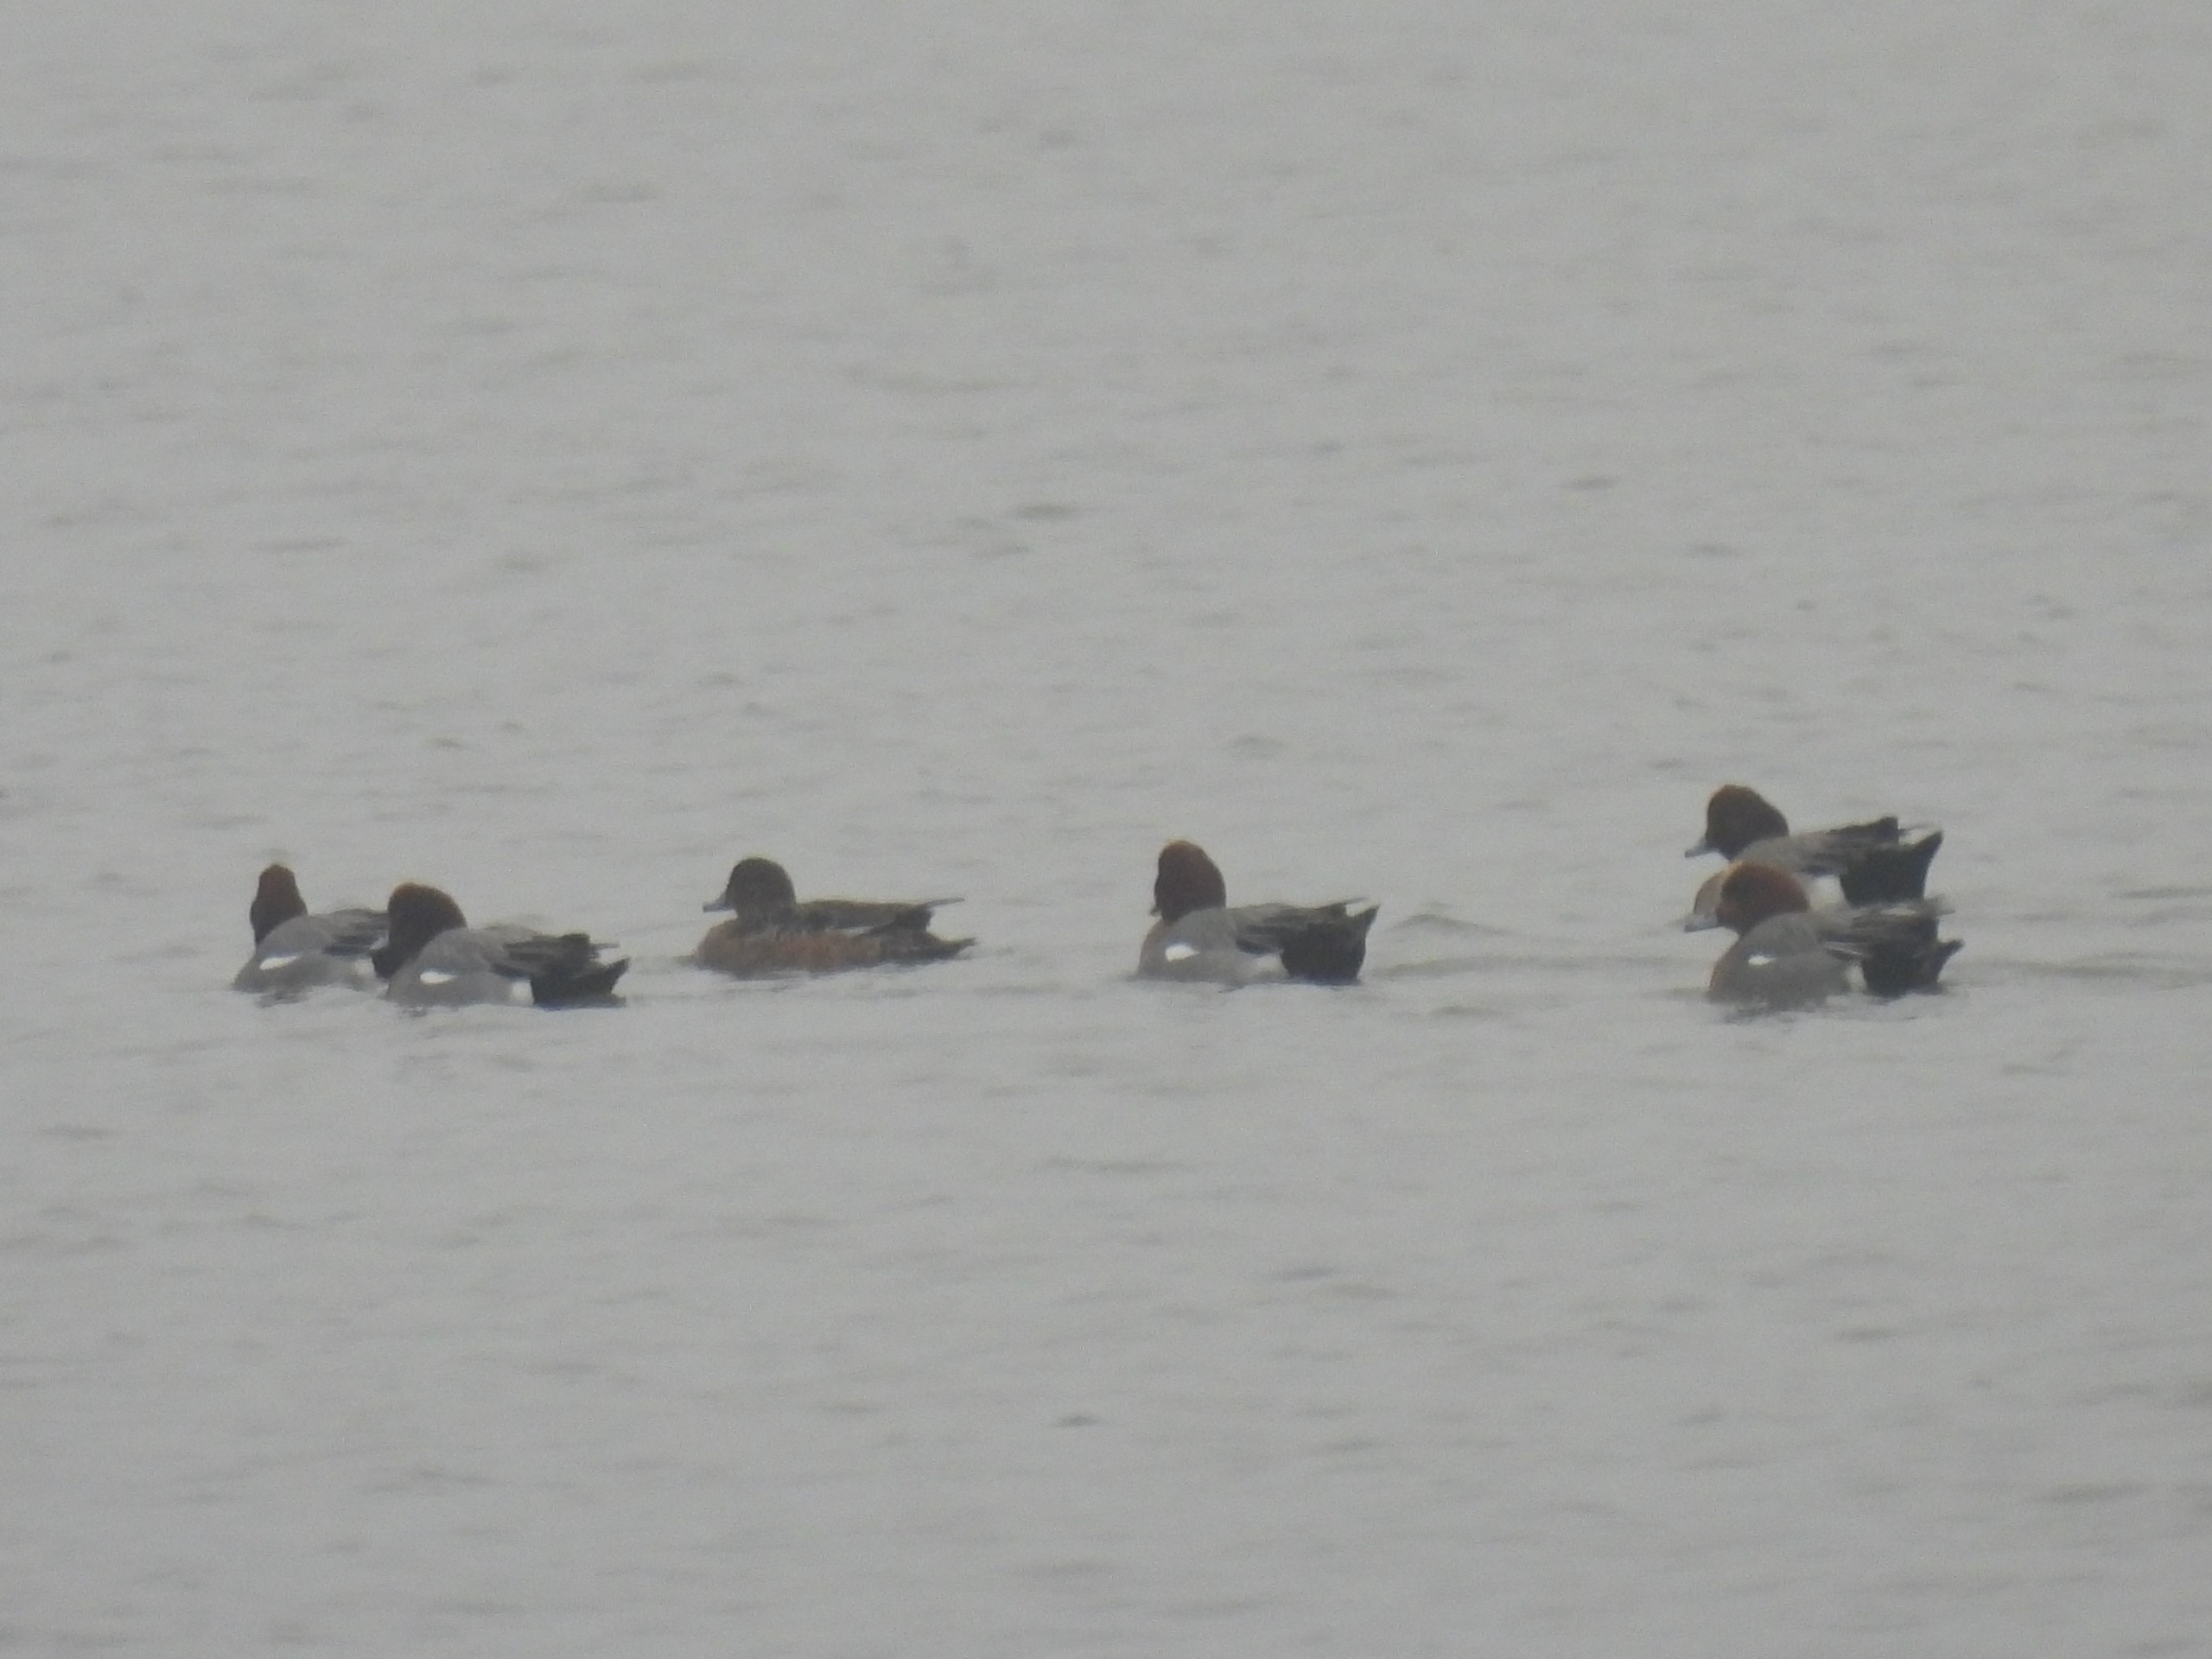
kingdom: Animalia
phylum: Chordata
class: Aves
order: Anseriformes
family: Anatidae
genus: Mareca
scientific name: Mareca penelope
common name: Pibeand
